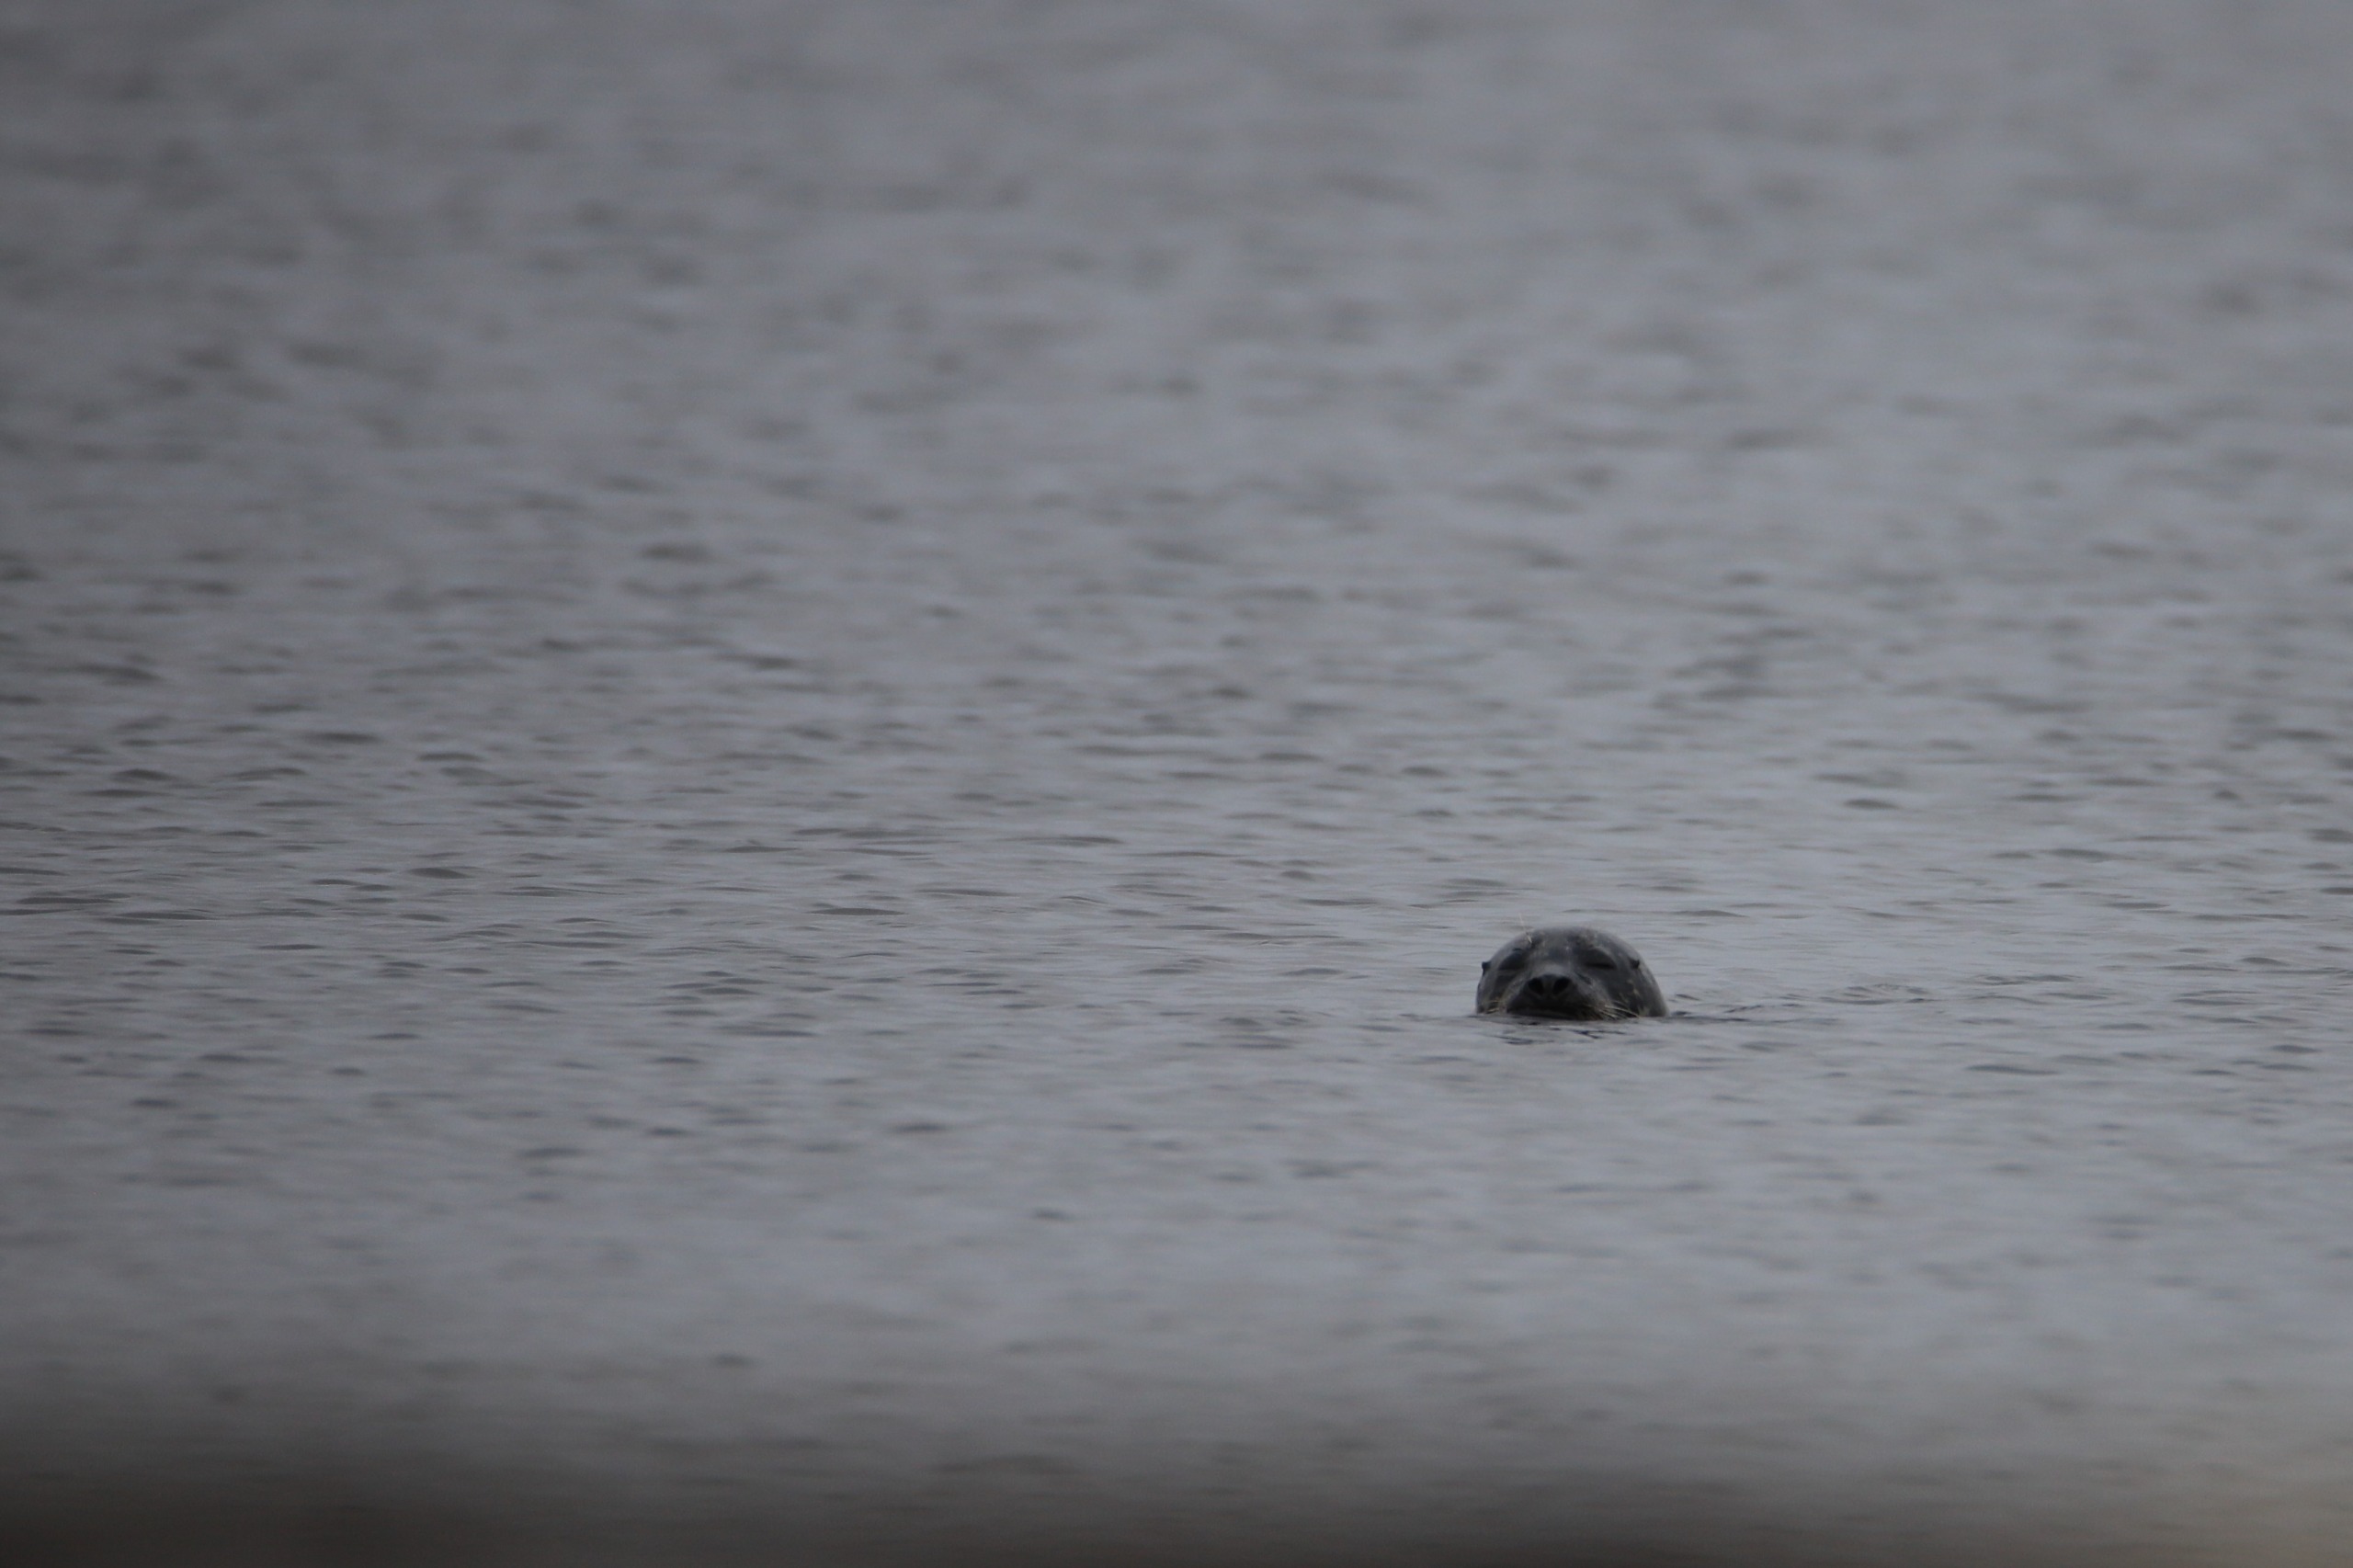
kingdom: Animalia
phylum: Chordata
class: Mammalia
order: Carnivora
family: Phocidae
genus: Phoca
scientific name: Phoca vitulina
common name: Spættet sæl
